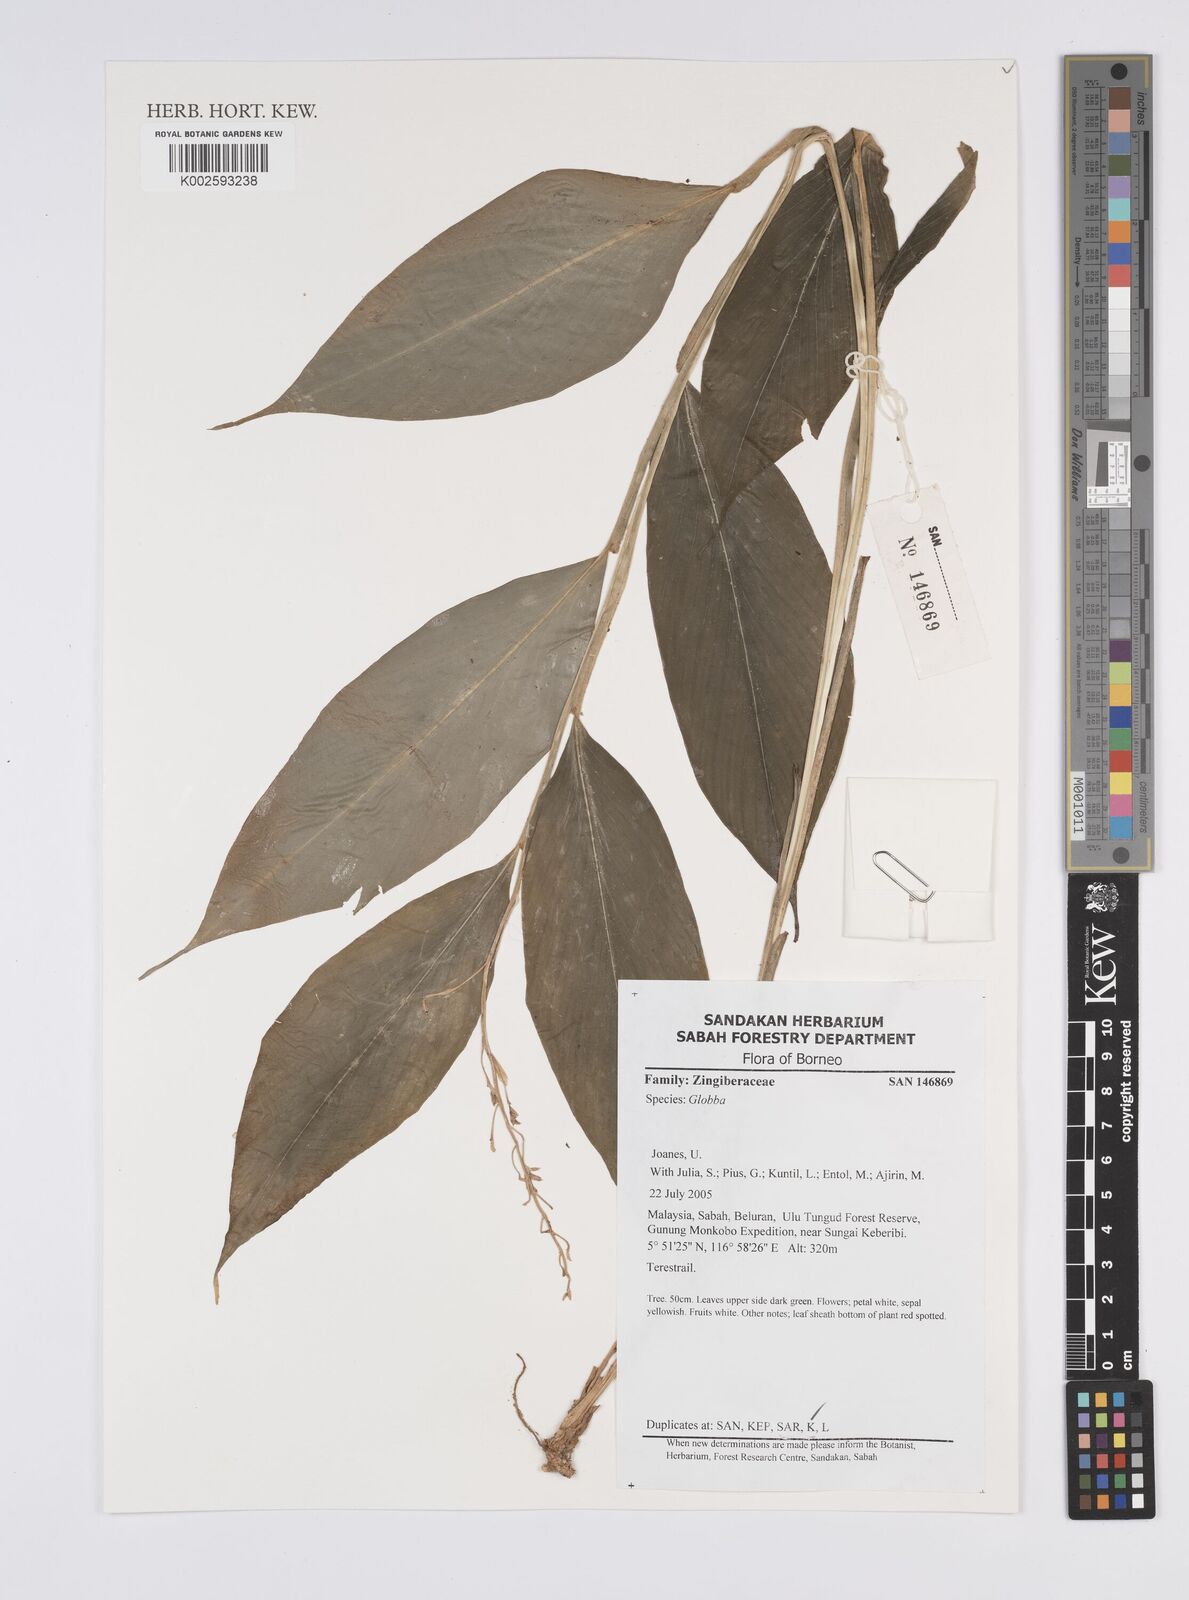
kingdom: Plantae
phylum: Tracheophyta
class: Liliopsida
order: Zingiberales
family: Zingiberaceae
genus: Globba
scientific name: Globba
